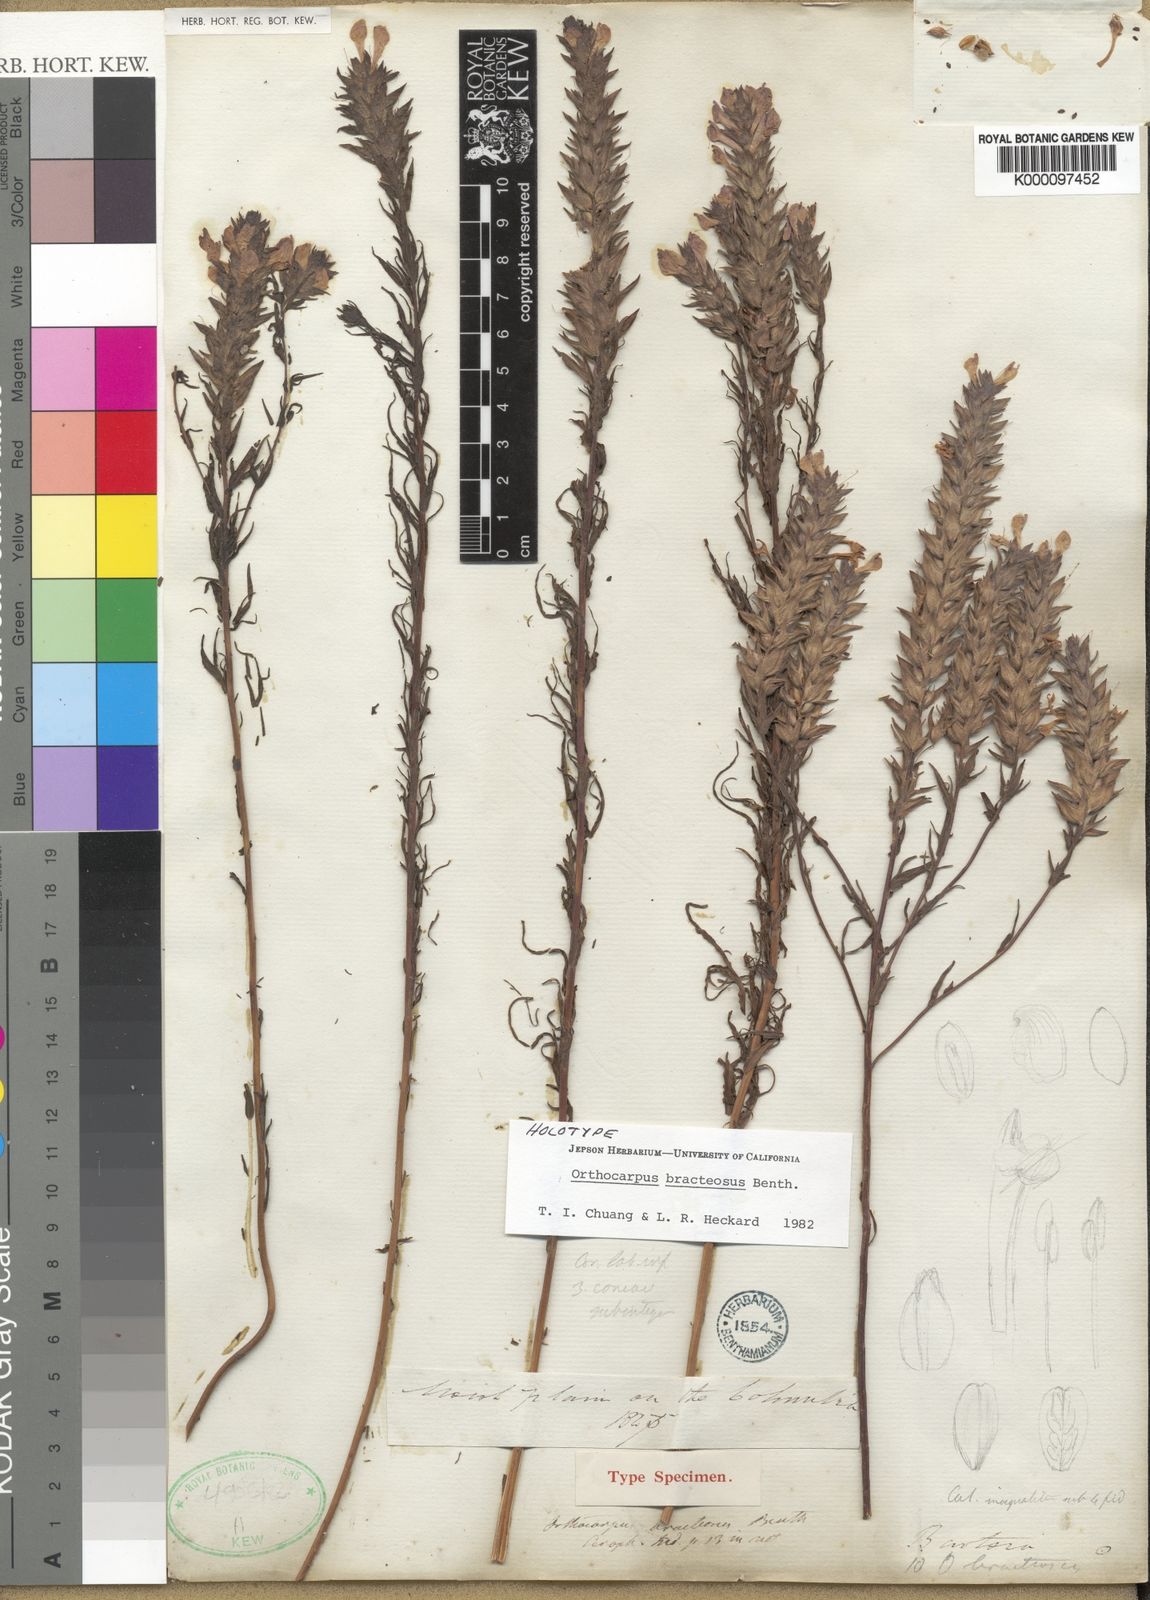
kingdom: Plantae
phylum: Tracheophyta
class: Magnoliopsida
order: Lamiales
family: Orobanchaceae
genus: Orthocarpus
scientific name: Orthocarpus bracteosus
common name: Rosy owl's-clover
